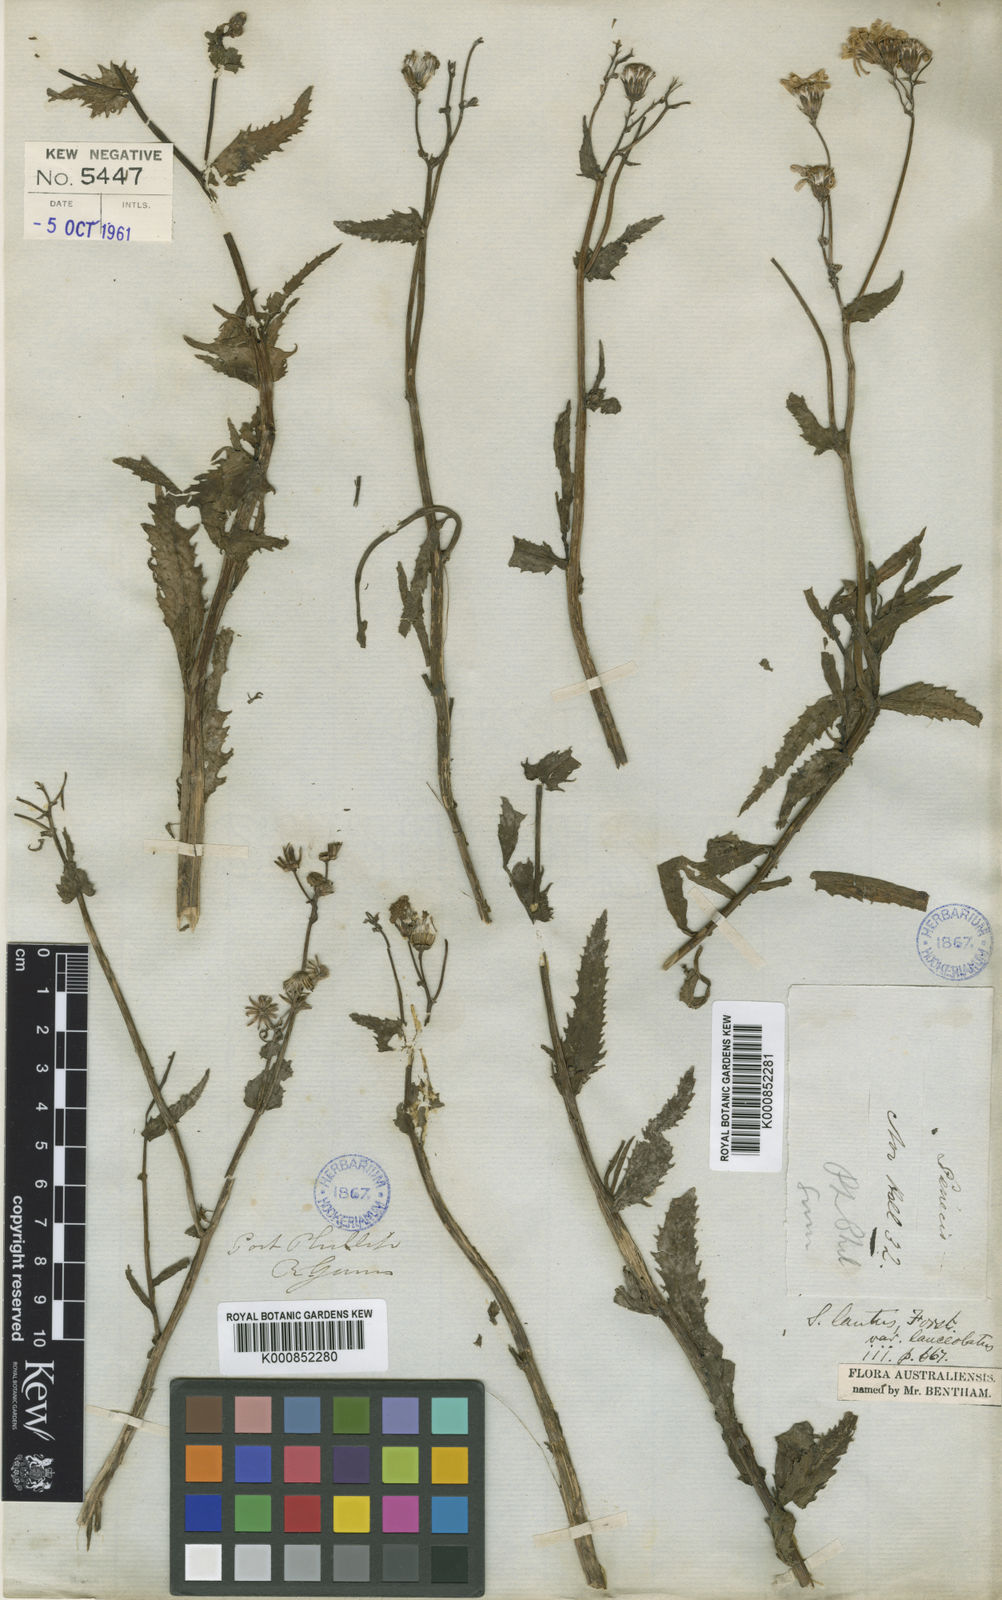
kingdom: Plantae
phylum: Tracheophyta
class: Magnoliopsida
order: Asterales
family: Asteraceae
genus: Senecio
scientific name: Senecio pinnatifolius
